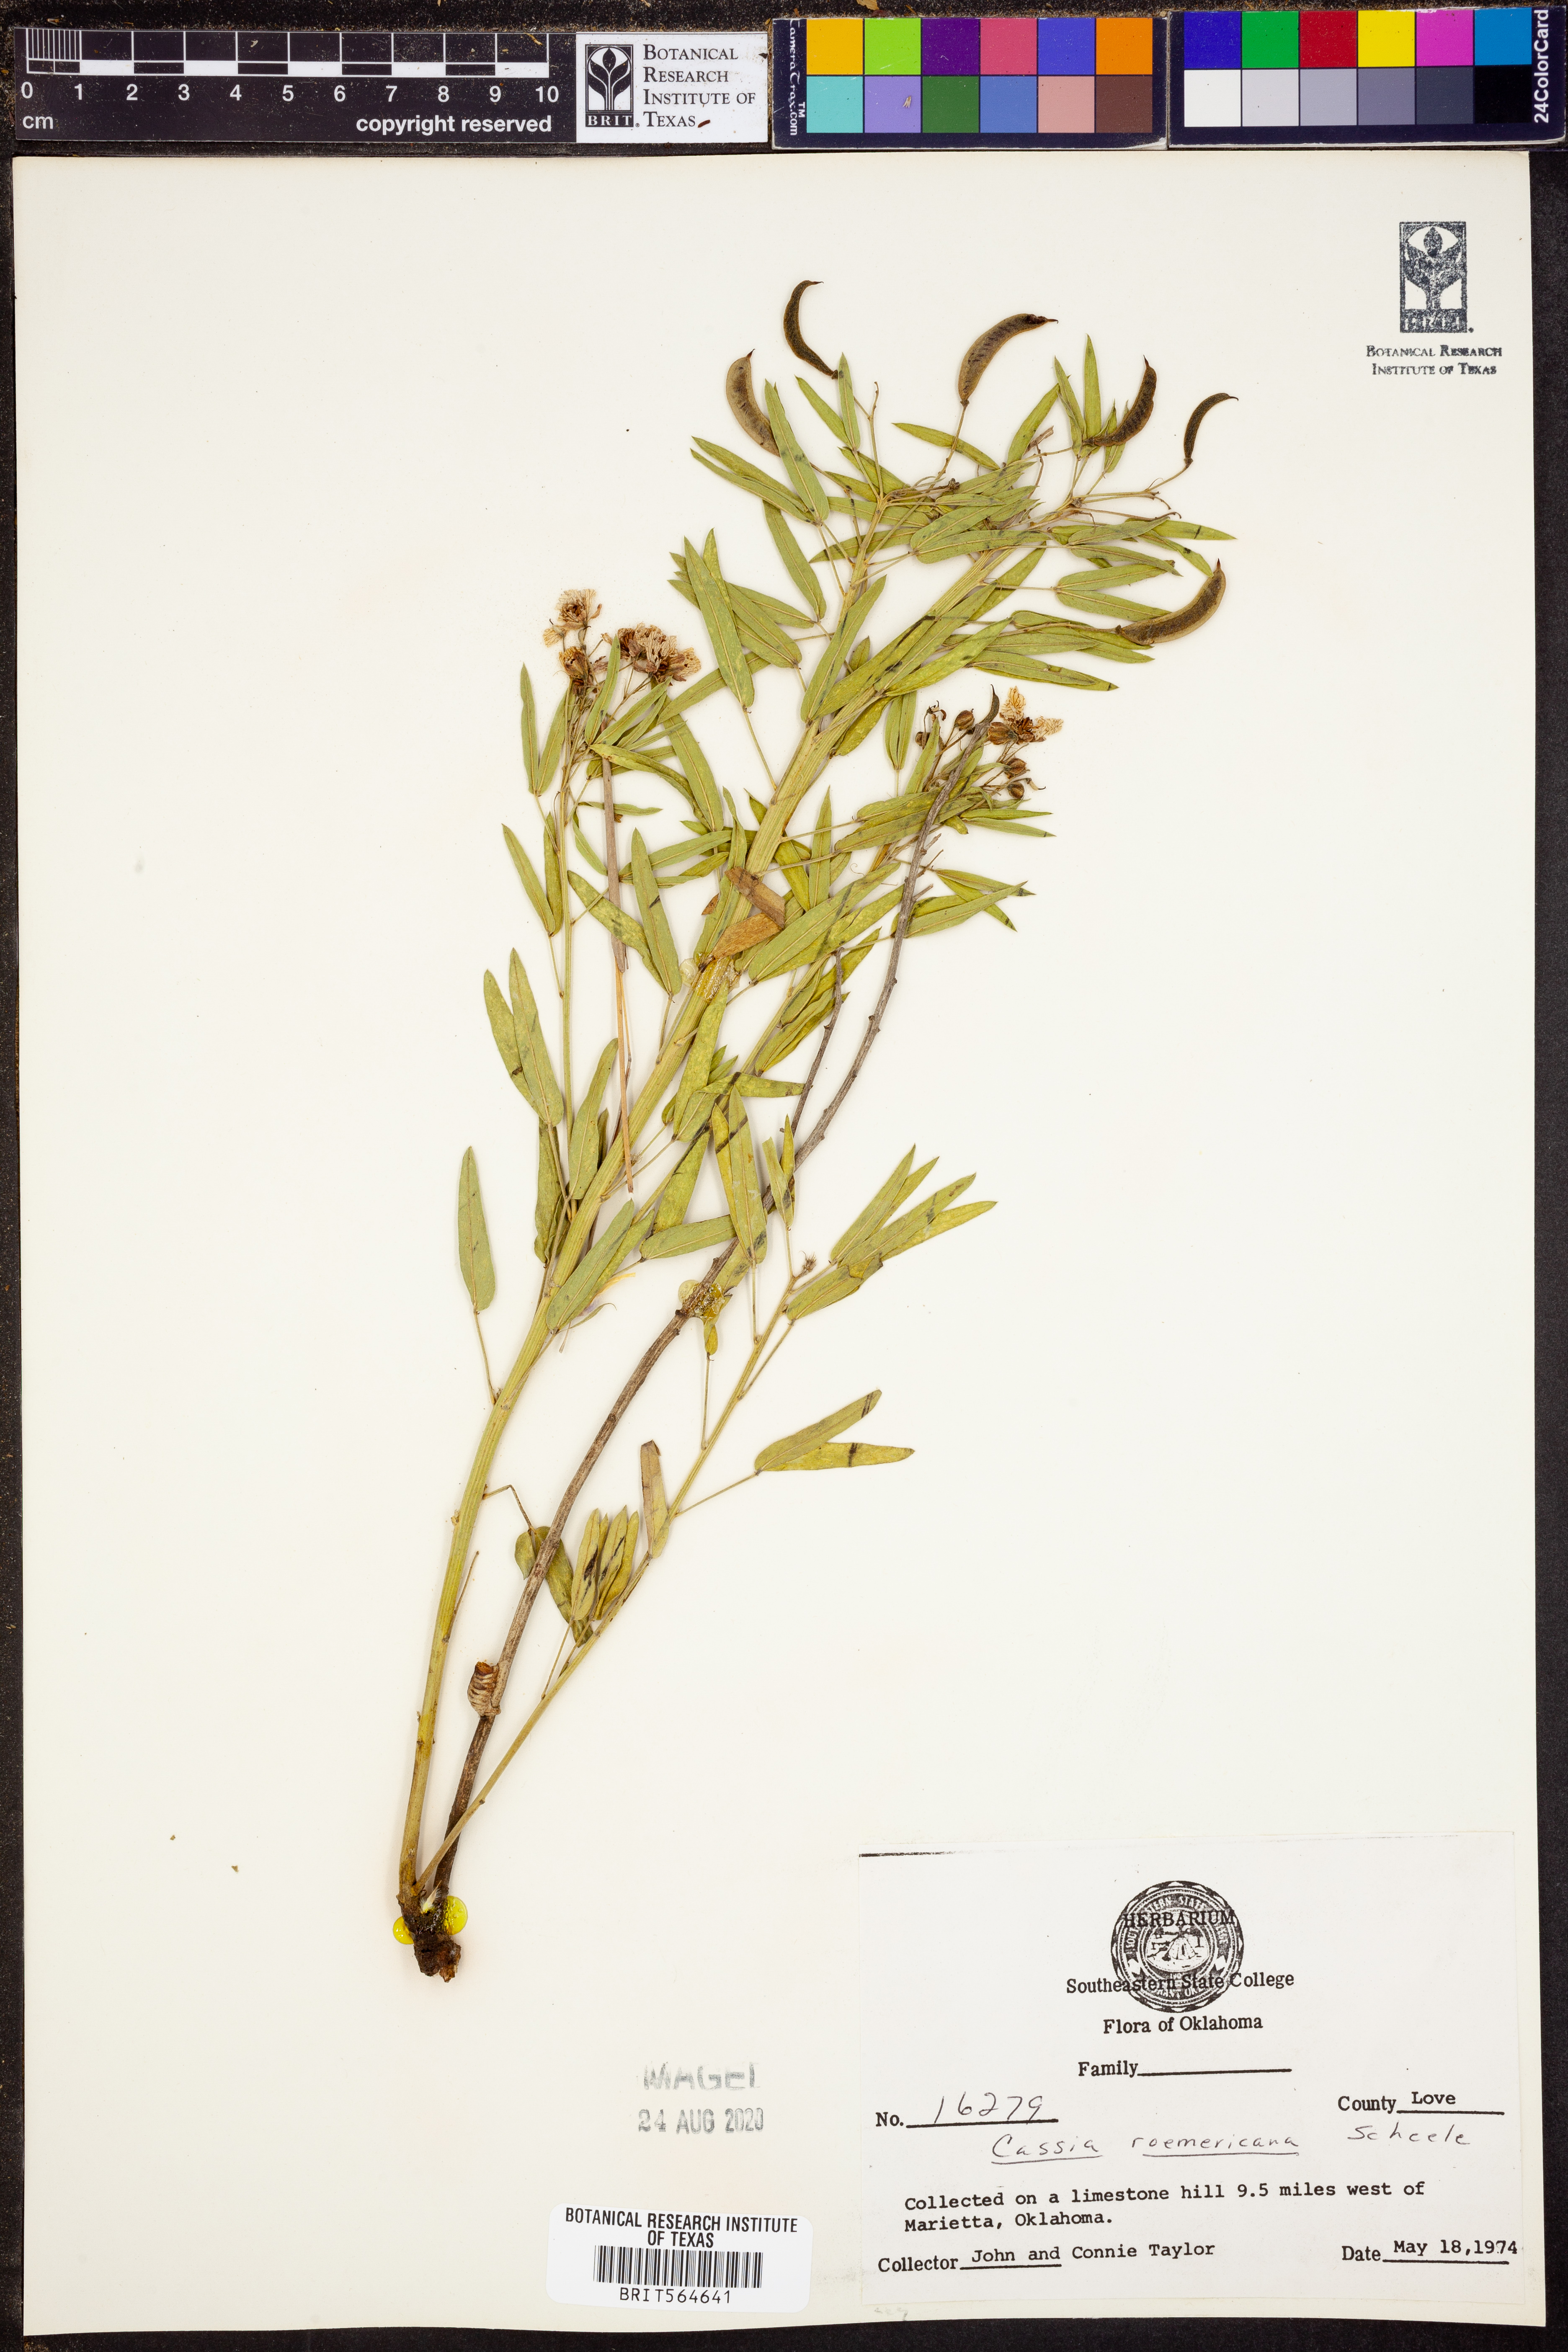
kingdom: Plantae
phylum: Tracheophyta
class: Magnoliopsida
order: Fabales
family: Fabaceae
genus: Senna
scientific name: Senna roemeriana
